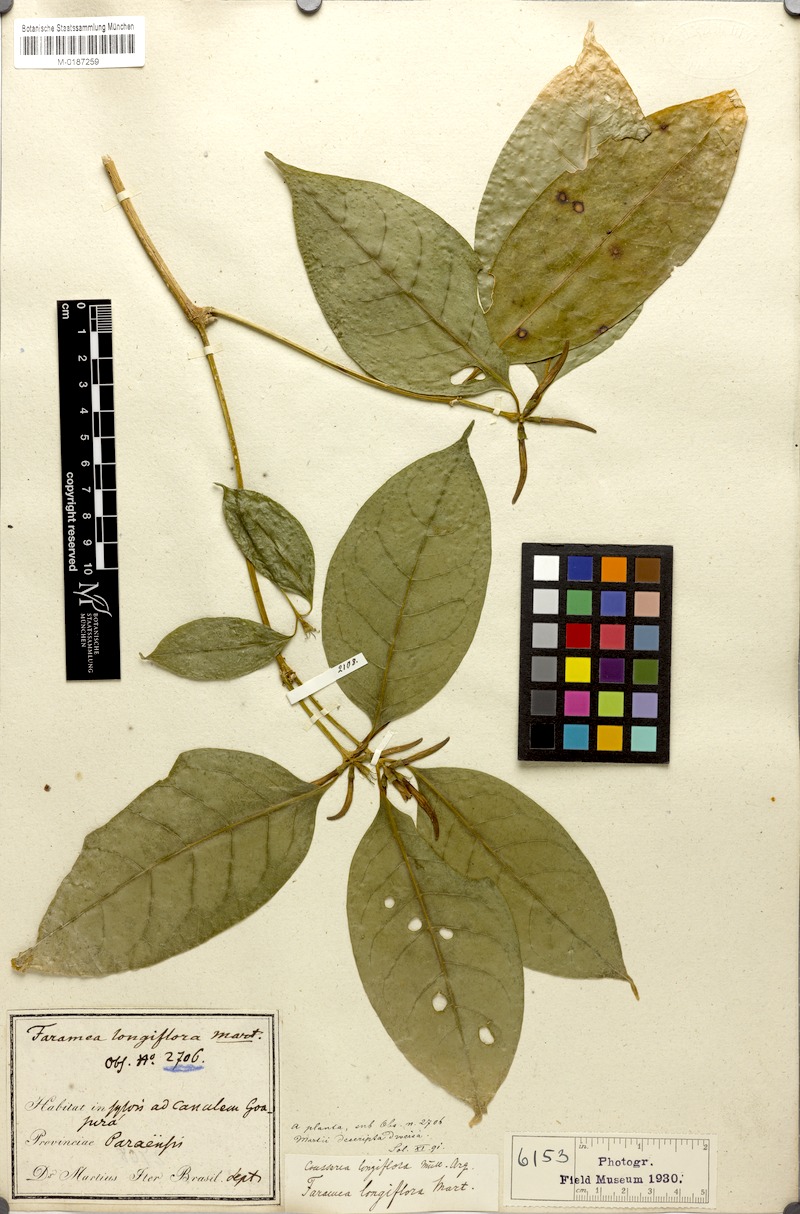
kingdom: Plantae
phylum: Tracheophyta
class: Magnoliopsida
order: Gentianales
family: Rubiaceae
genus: Coussarea
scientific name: Coussarea longiflora
